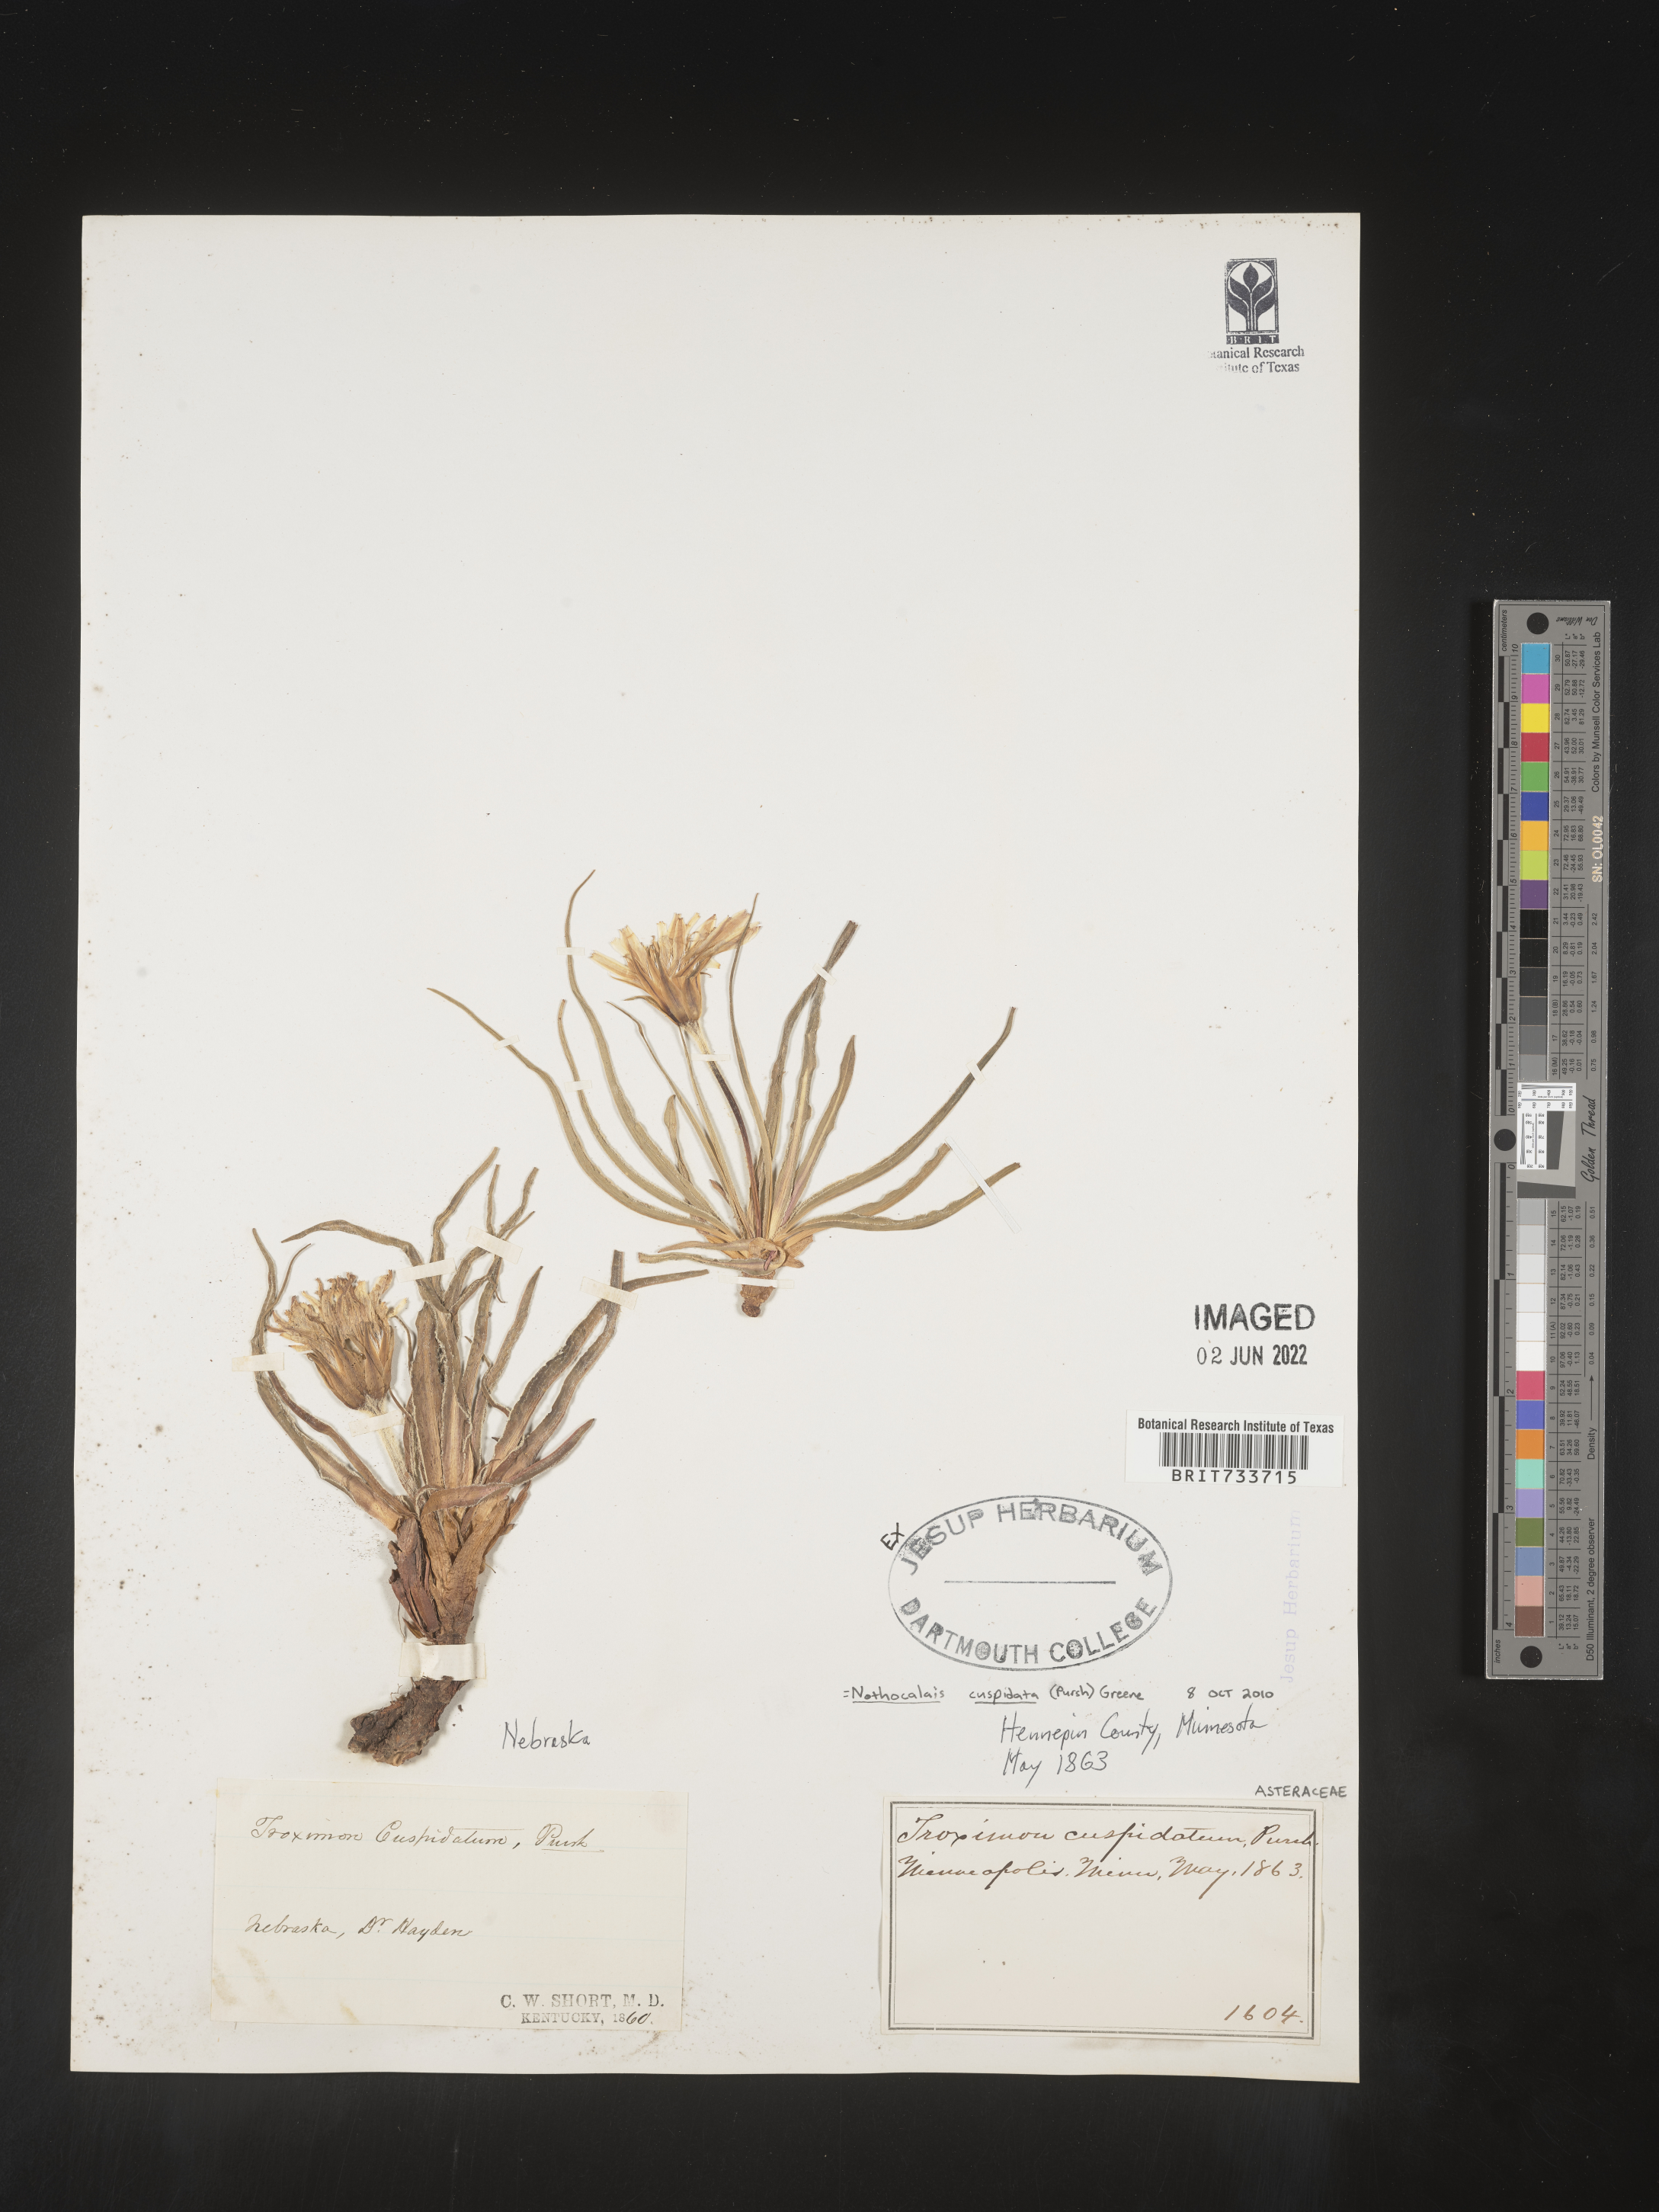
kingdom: Plantae
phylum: Tracheophyta
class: Magnoliopsida
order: Asterales
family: Asteraceae
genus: Microseris
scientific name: Microseris
